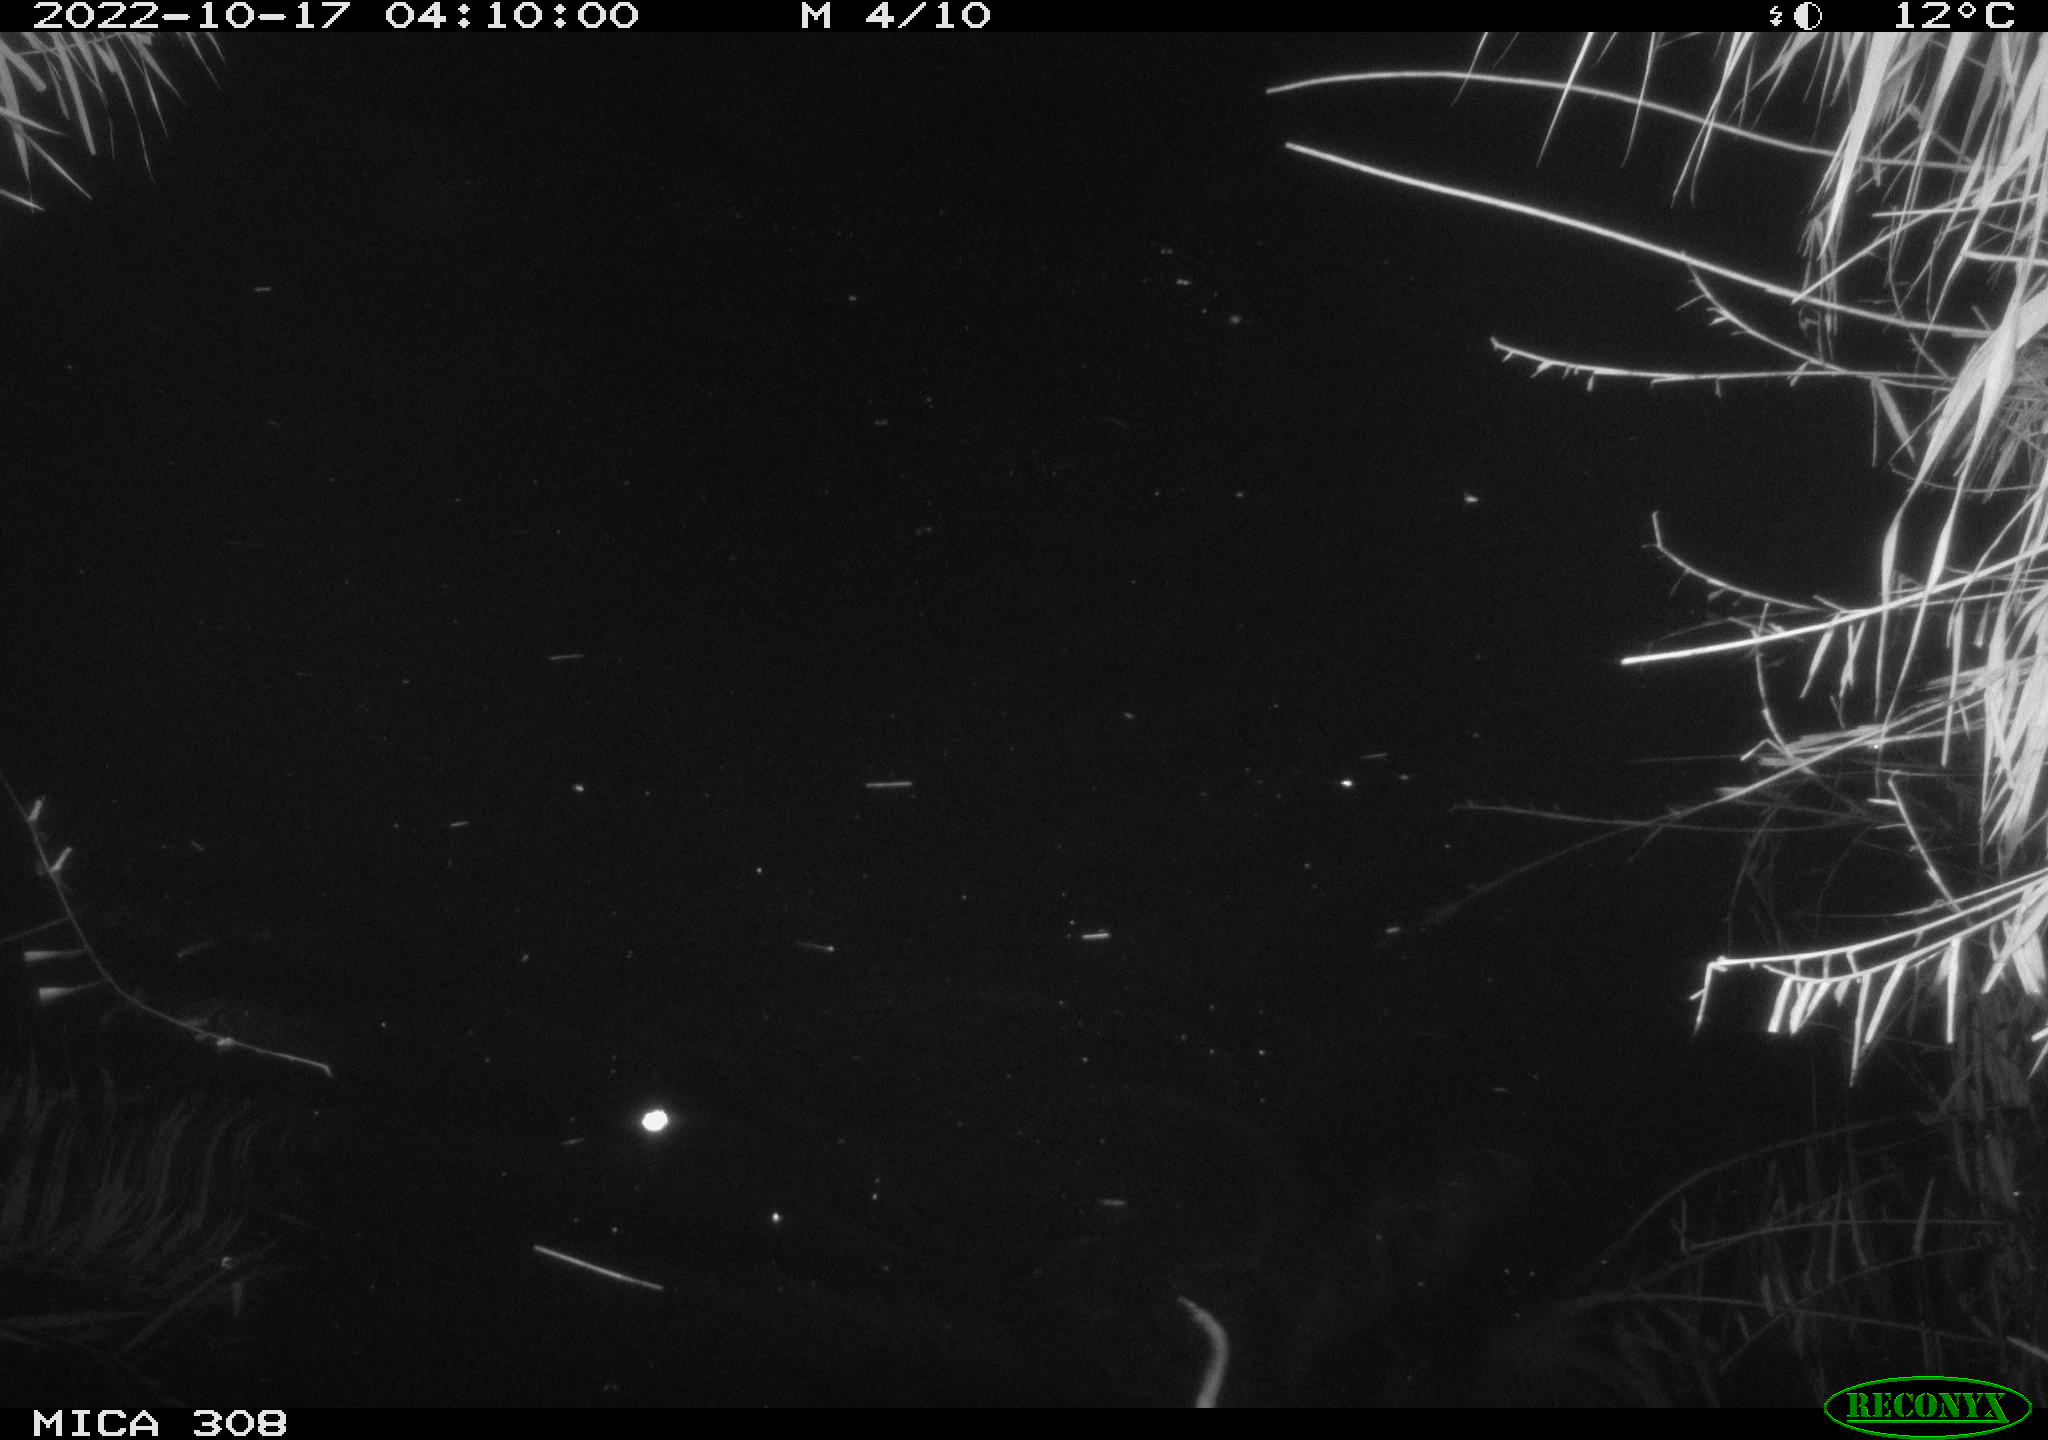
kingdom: Animalia
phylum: Chordata
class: Mammalia
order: Rodentia
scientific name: Rodentia
